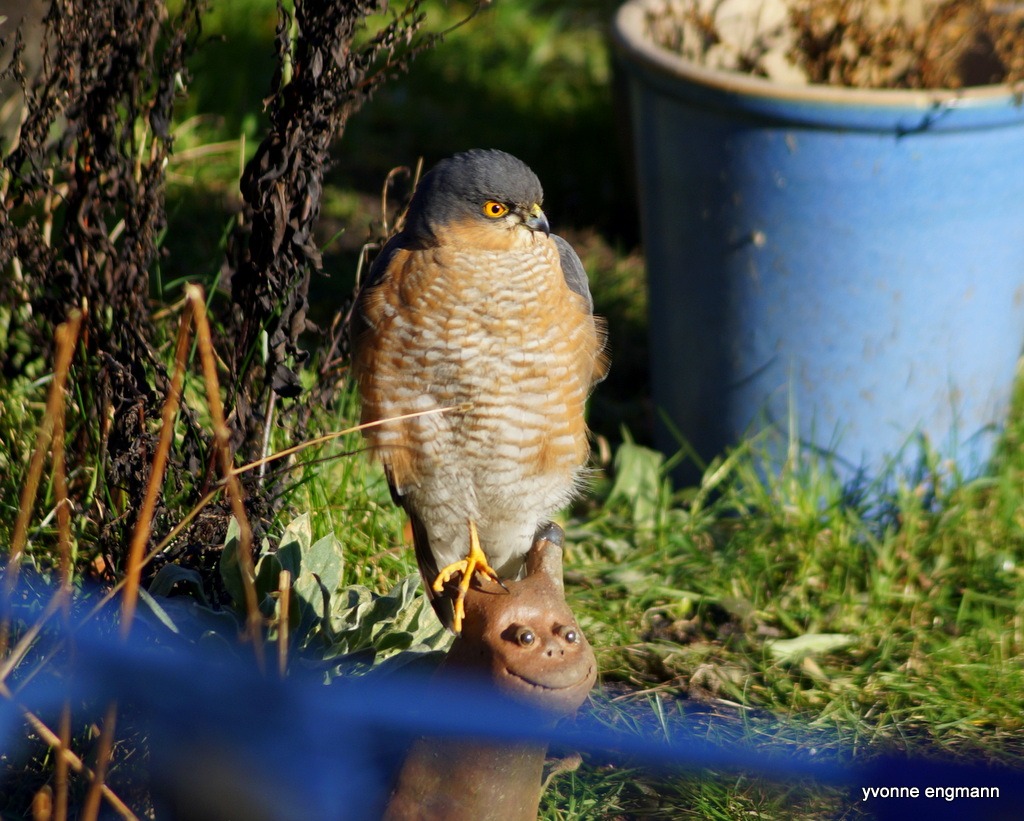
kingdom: Animalia
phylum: Chordata
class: Aves
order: Accipitriformes
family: Accipitridae
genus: Accipiter
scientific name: Accipiter nisus
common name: Spurvehøg
